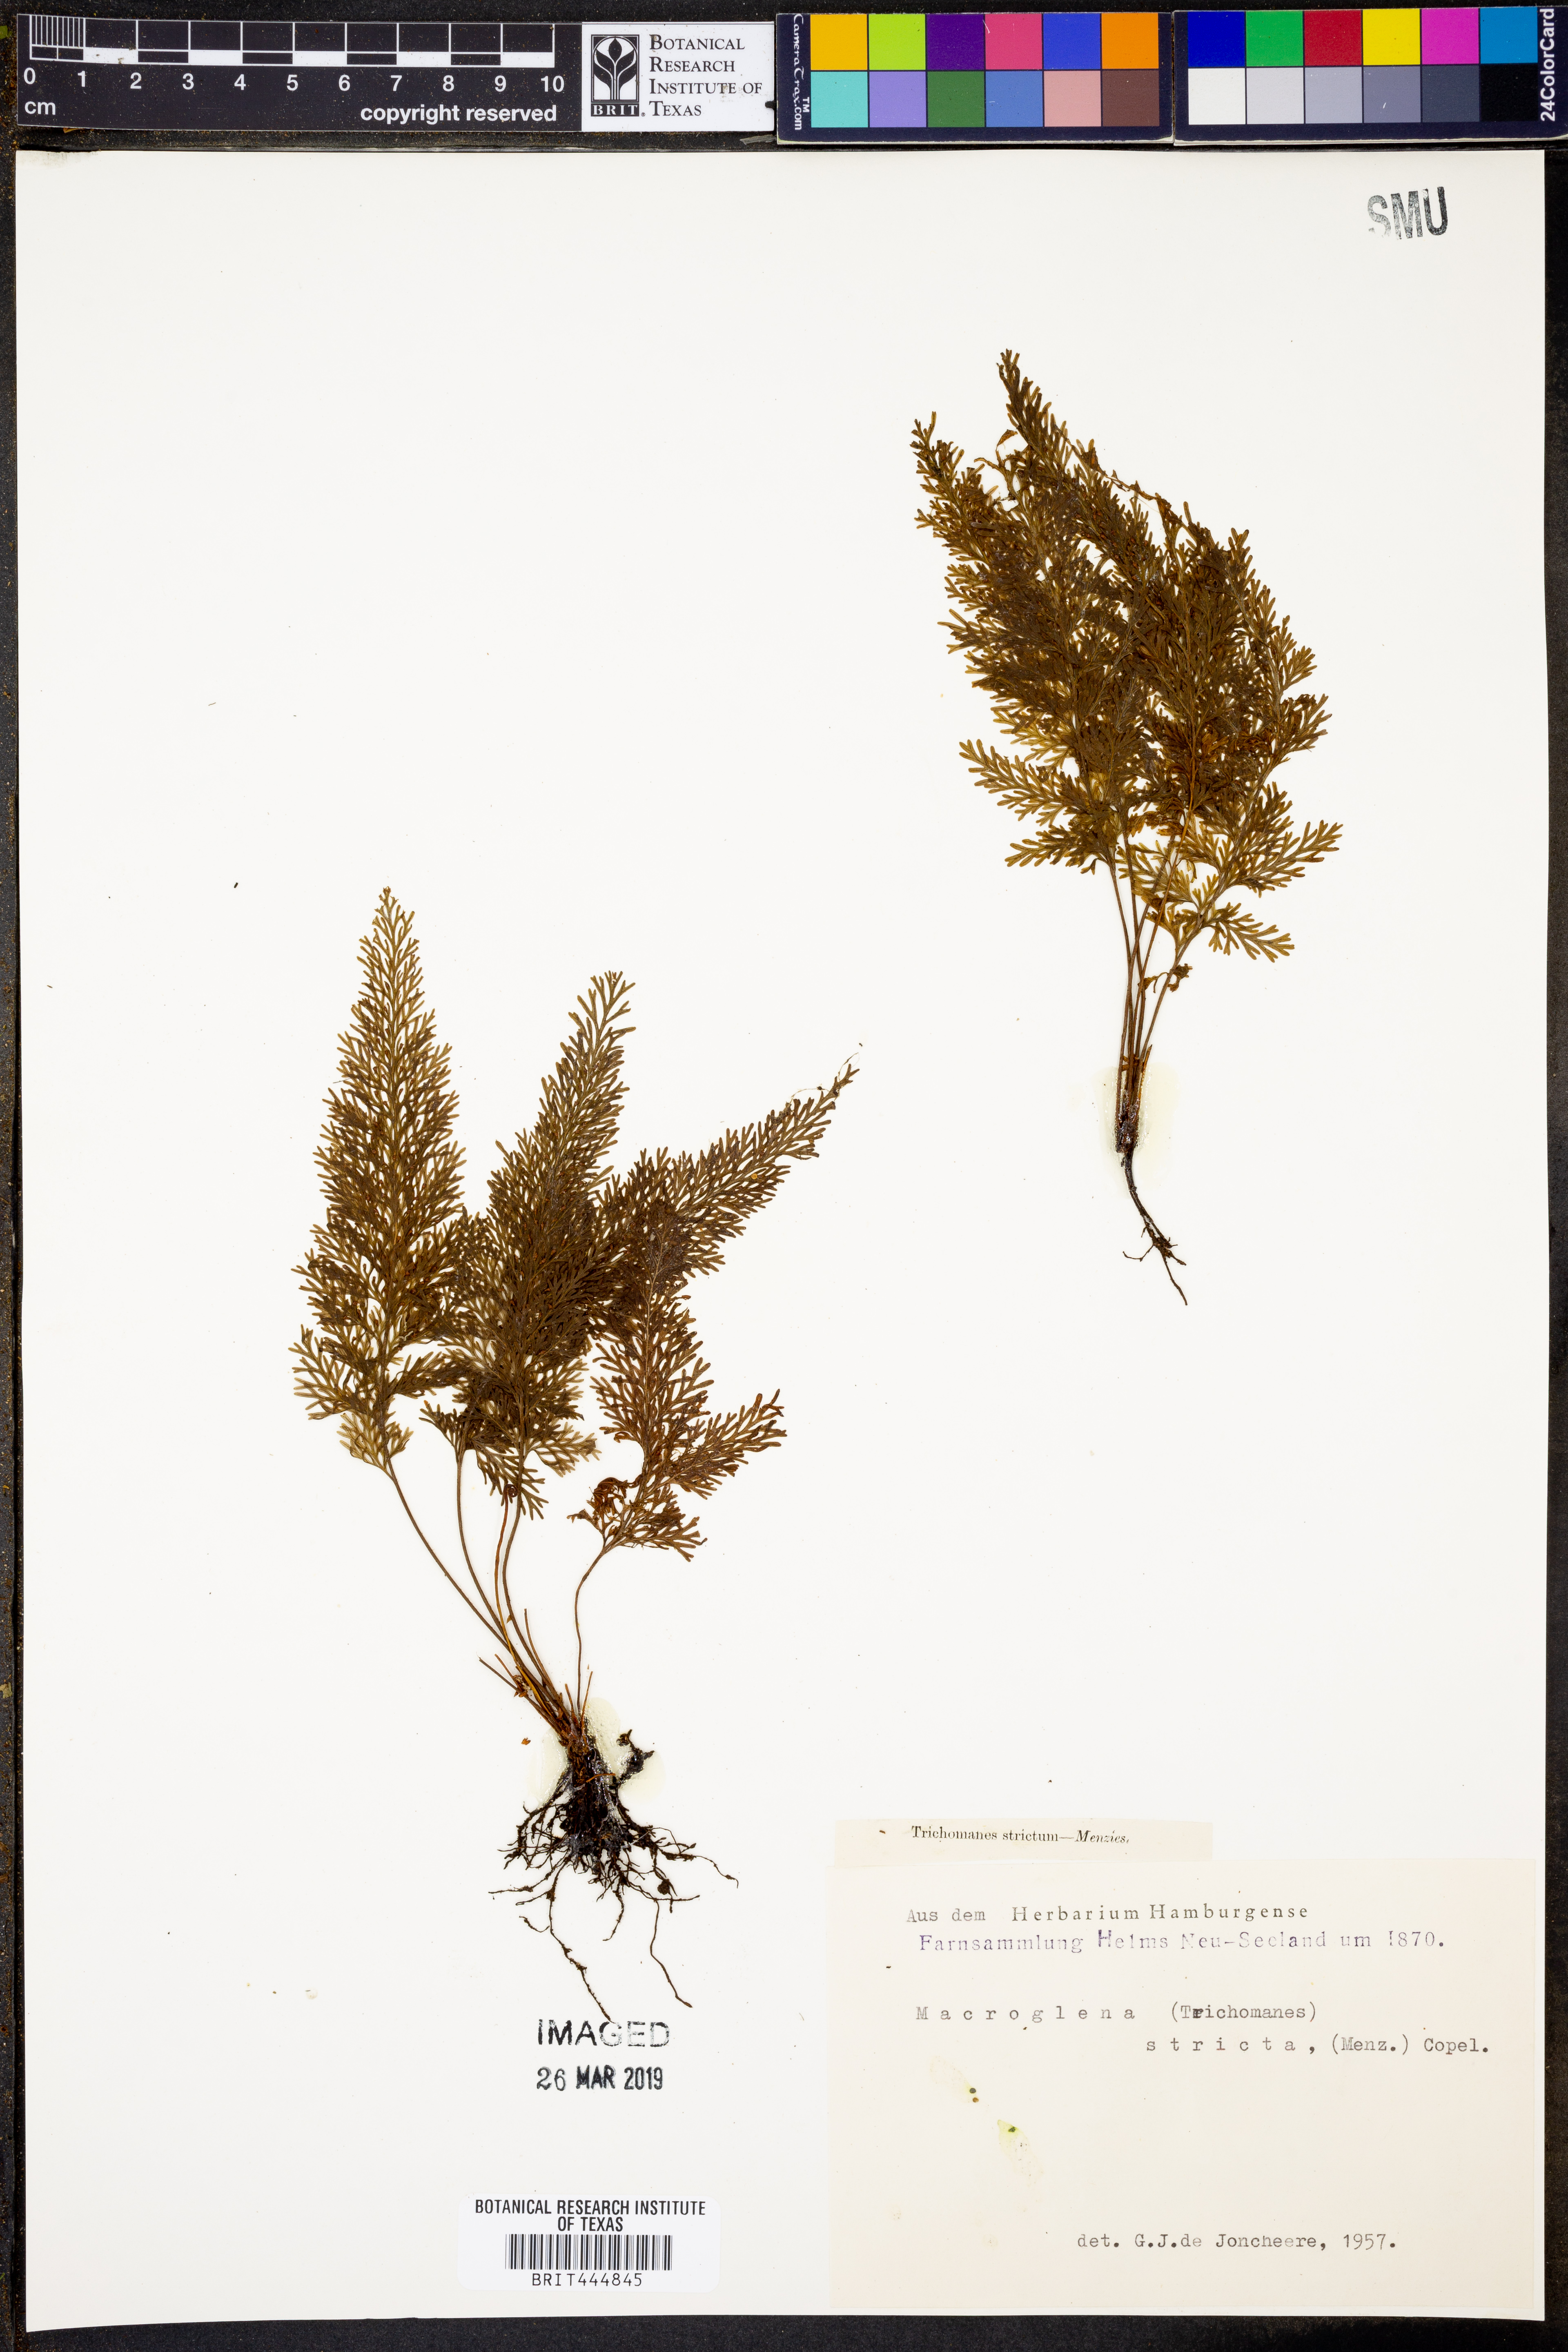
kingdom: Plantae
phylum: Tracheophyta
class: Polypodiopsida
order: Hymenophyllales
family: Hymenophyllaceae
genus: Abrodictyum
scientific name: Abrodictyum strictum
